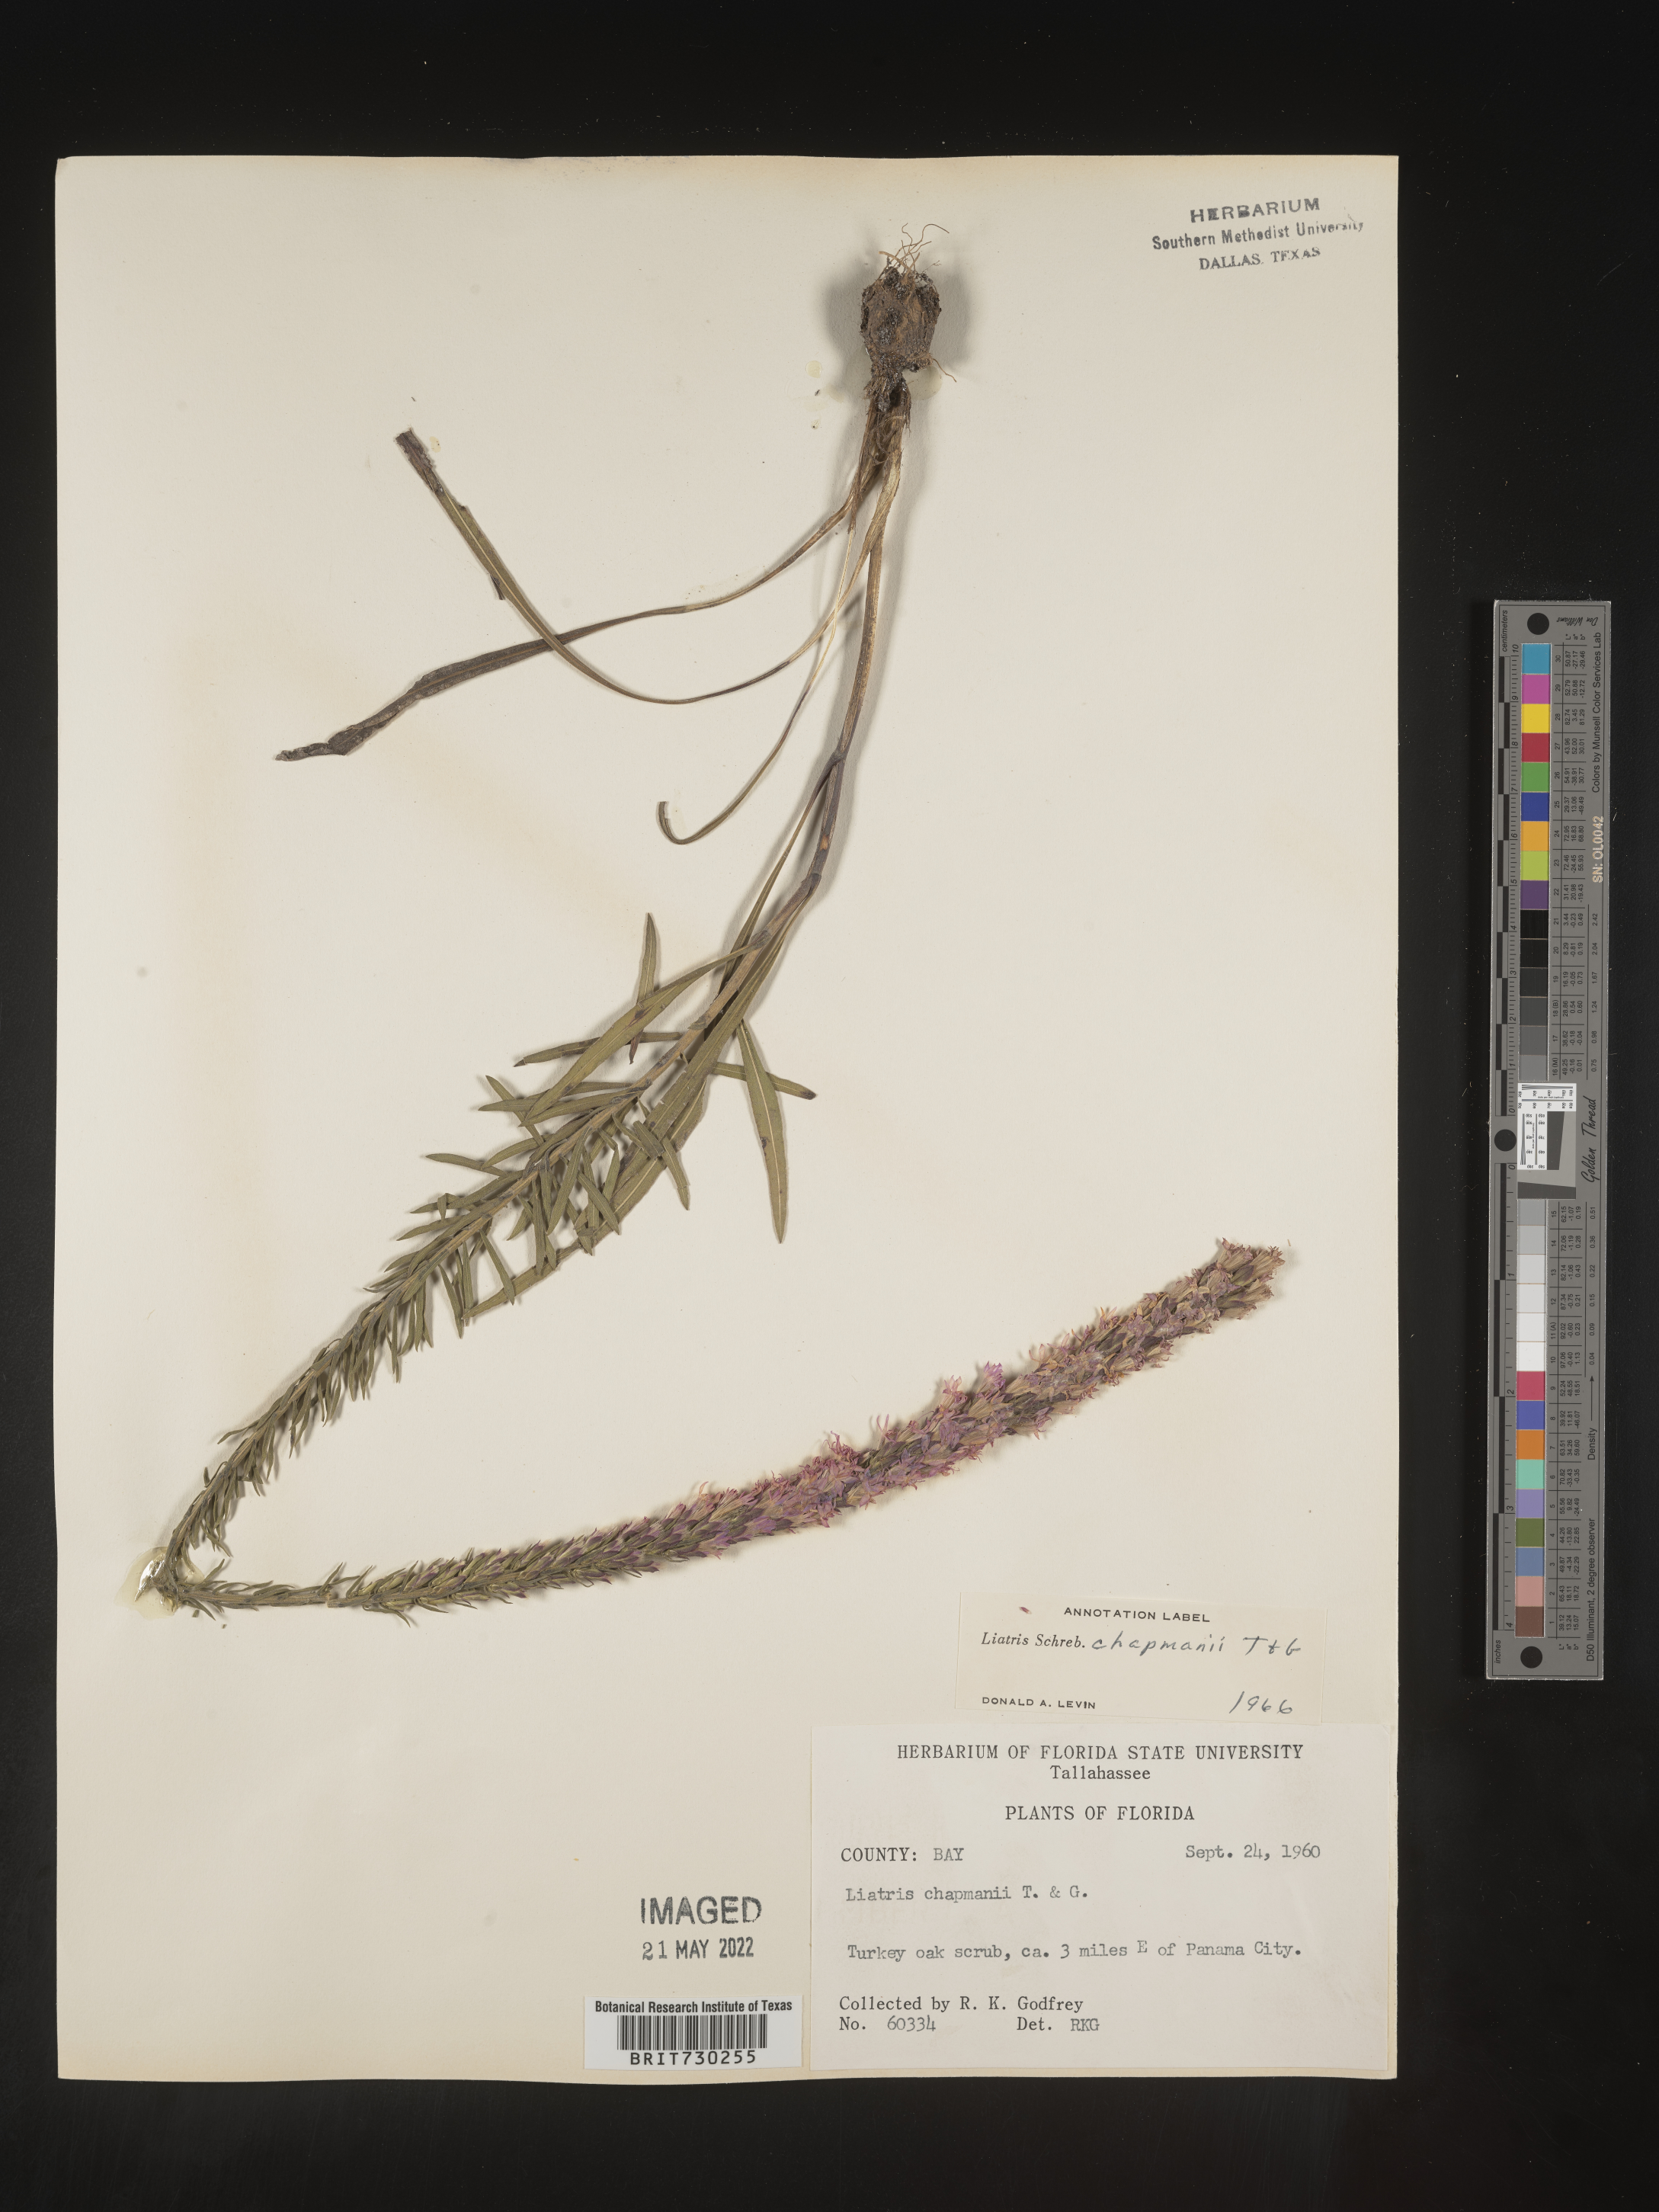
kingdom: Plantae
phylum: Tracheophyta
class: Magnoliopsida
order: Asterales
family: Asteraceae
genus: Liatris
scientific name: Liatris chapmanii
